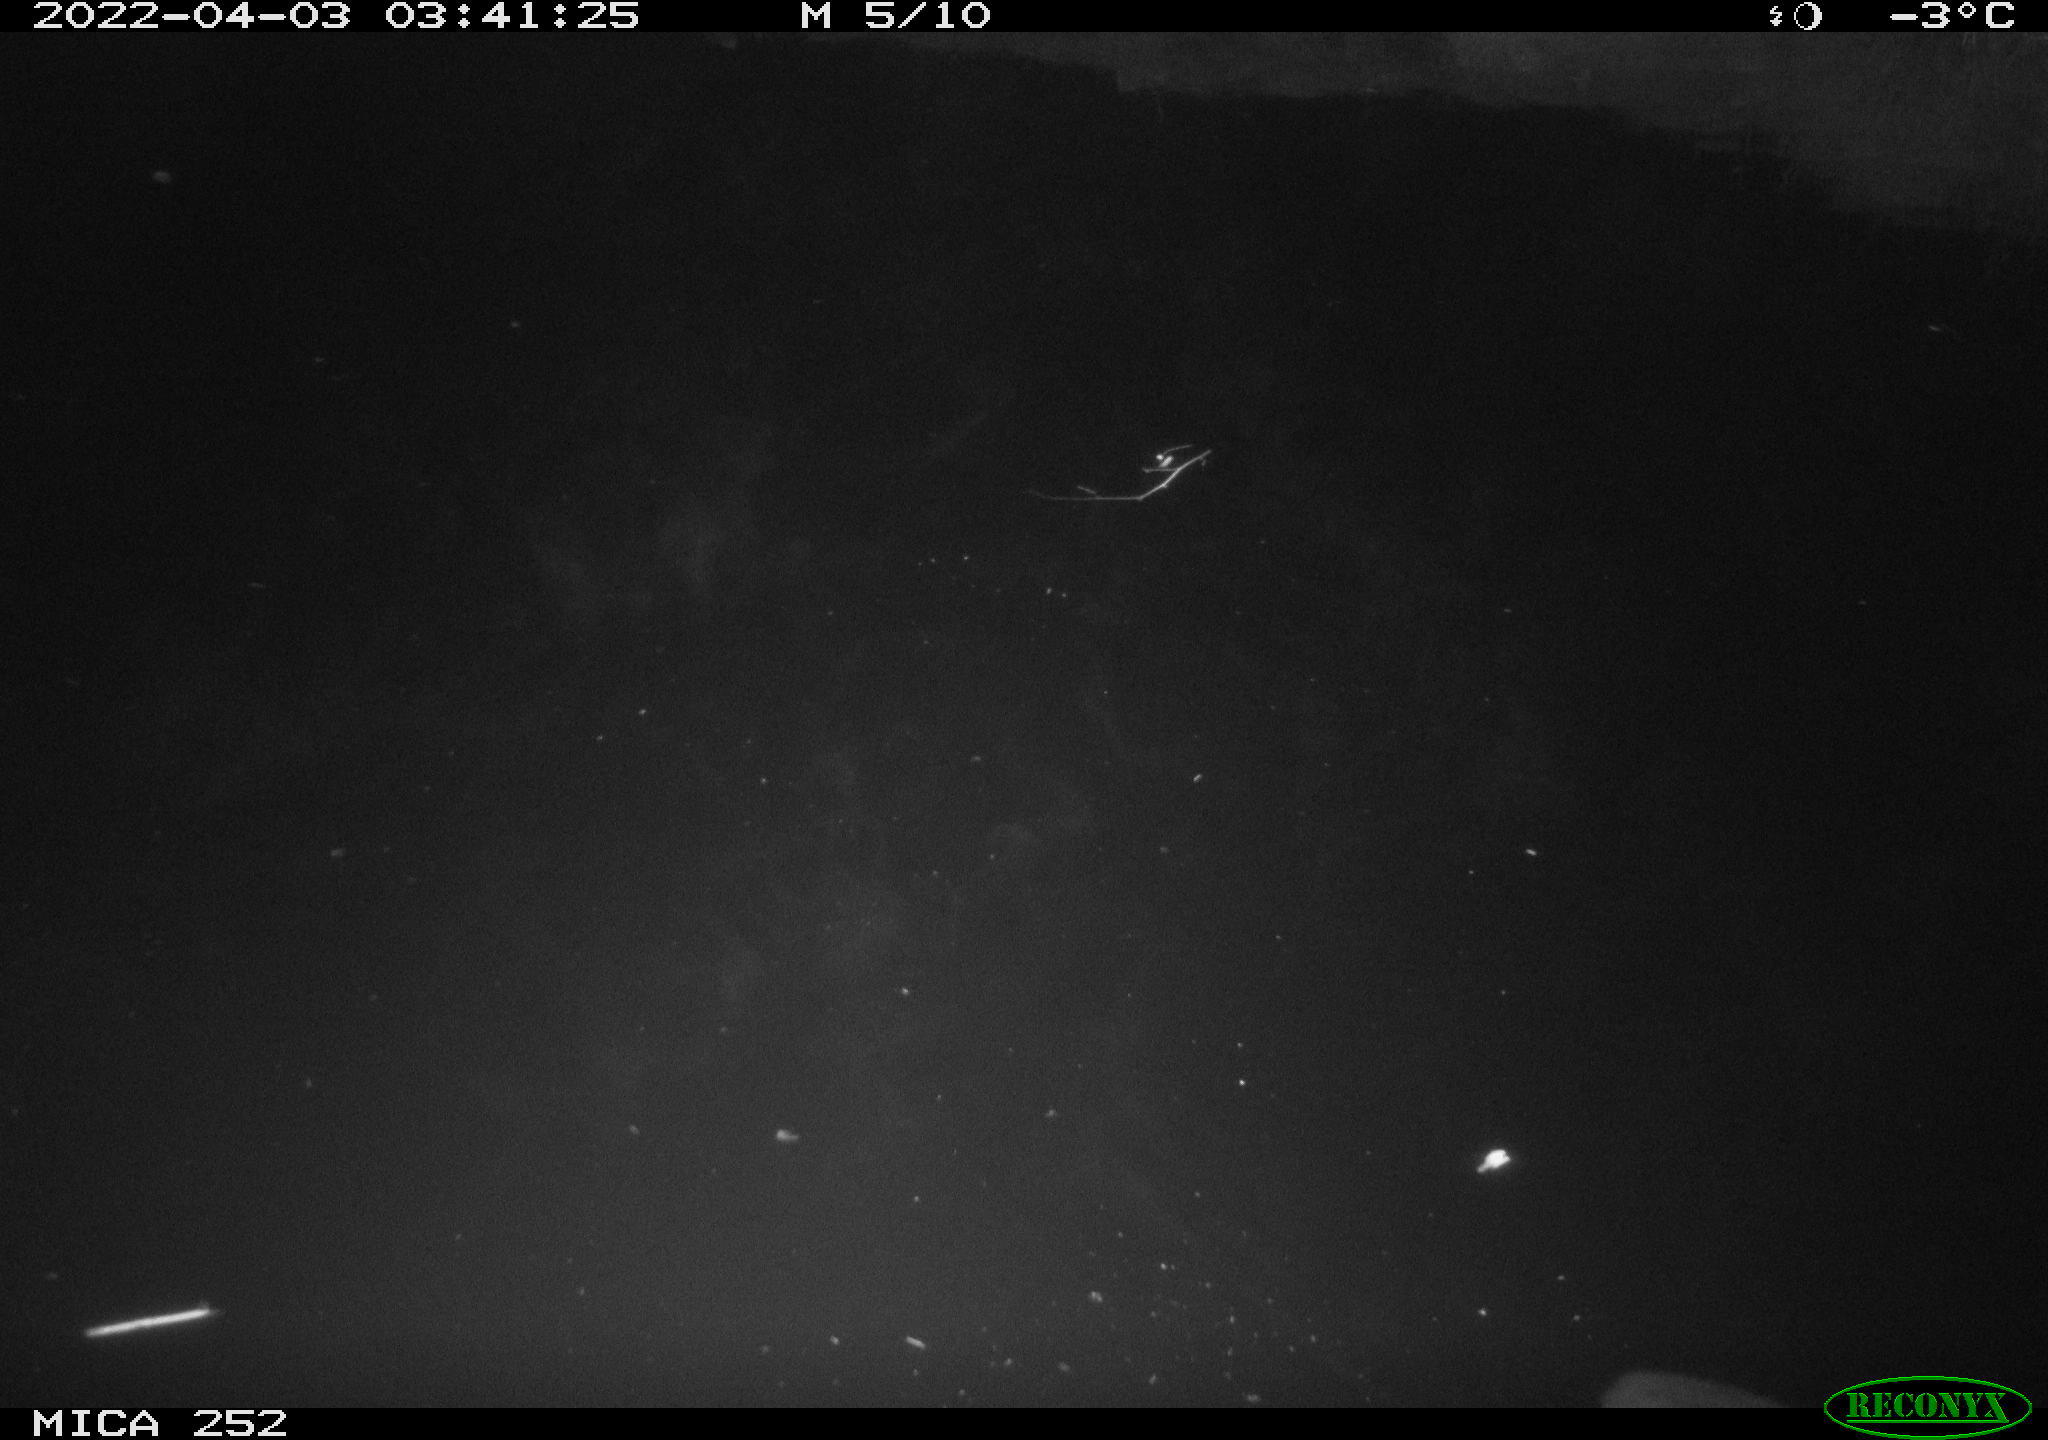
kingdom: Animalia
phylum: Chordata
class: Mammalia
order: Rodentia
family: Castoridae
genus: Castor
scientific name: Castor fiber
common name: Eurasian beaver
